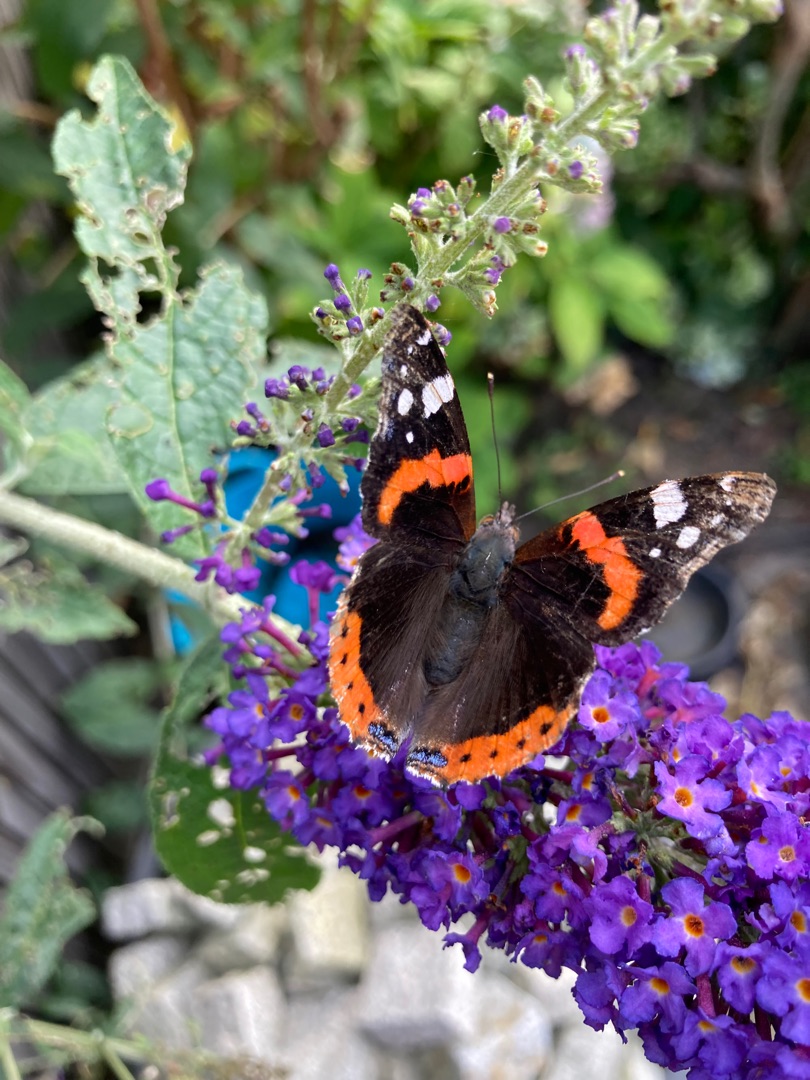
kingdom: Animalia
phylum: Arthropoda
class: Insecta
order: Lepidoptera
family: Nymphalidae
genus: Vanessa
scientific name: Vanessa atalanta
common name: Admiral
